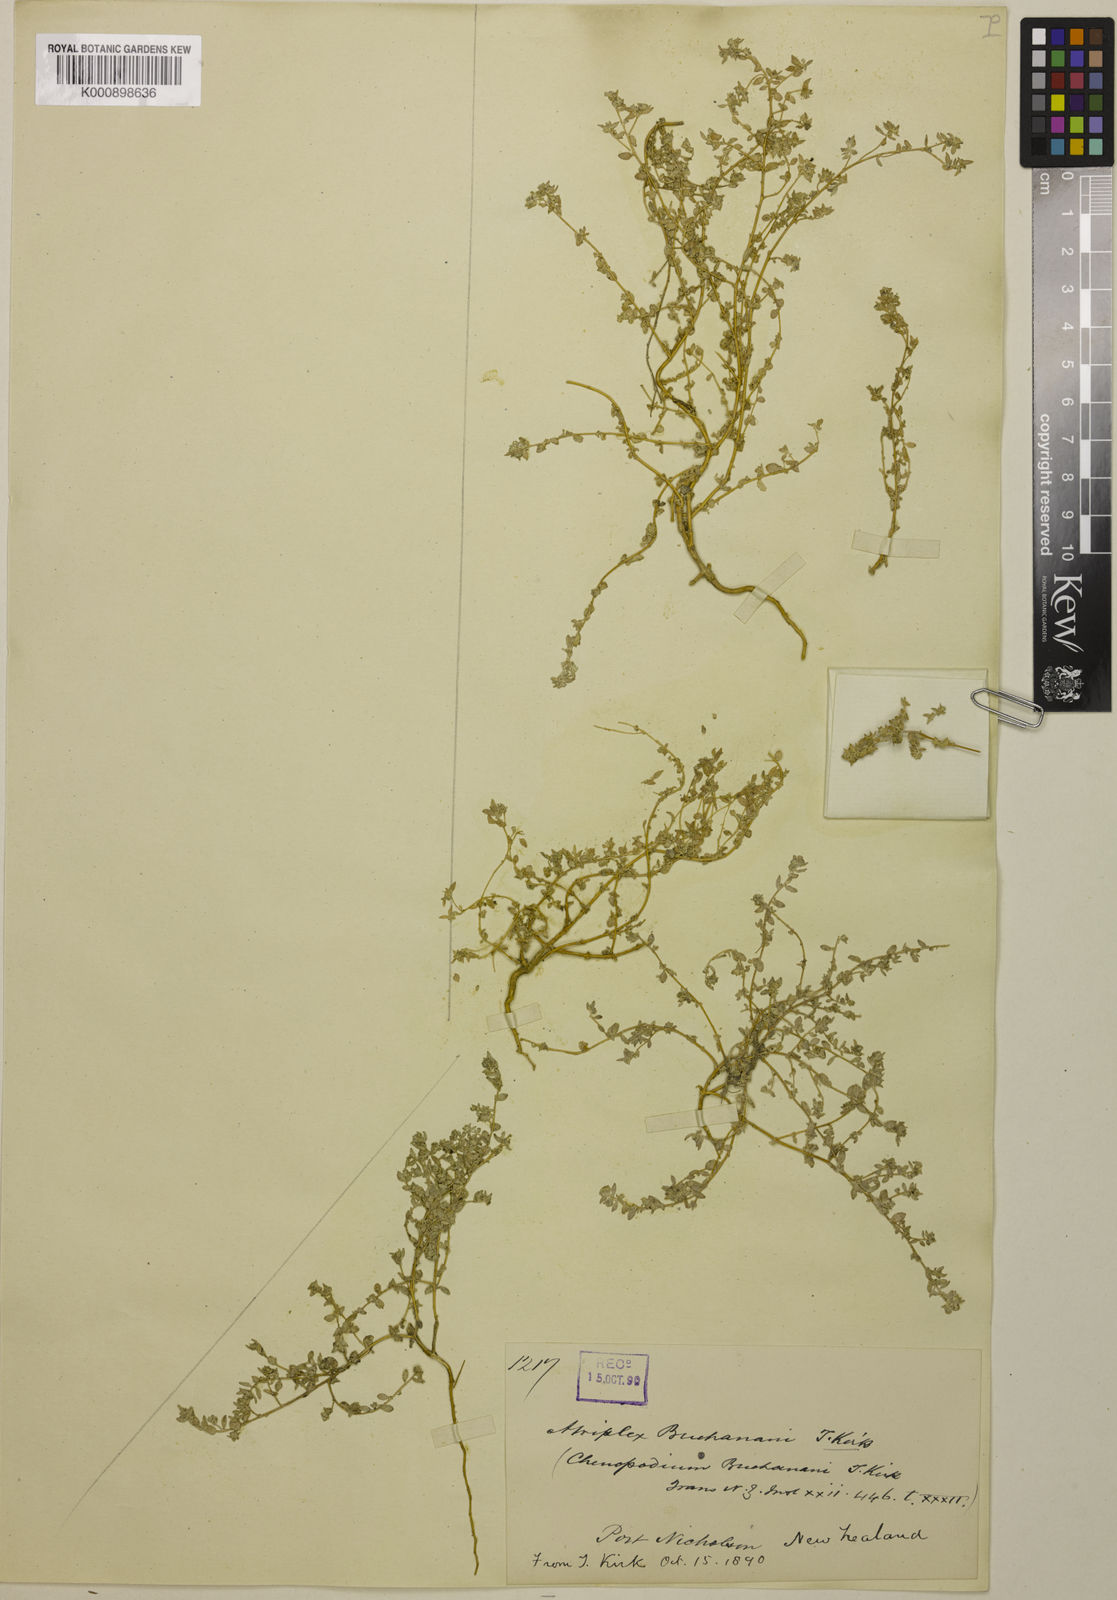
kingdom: Plantae
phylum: Tracheophyta
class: Magnoliopsida
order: Caryophyllales
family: Amaranthaceae
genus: Atriplex
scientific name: Atriplex buchananii
